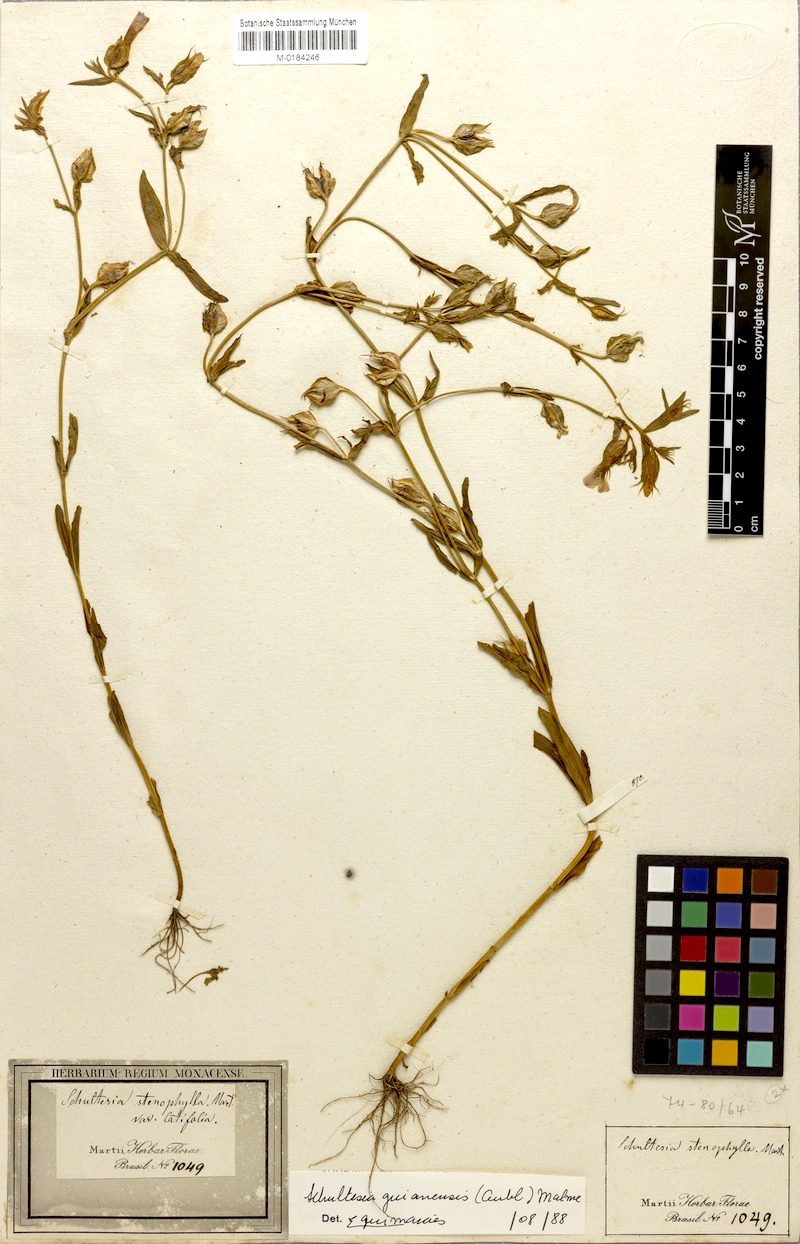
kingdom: Plantae
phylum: Tracheophyta
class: Magnoliopsida
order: Gentianales
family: Gentianaceae
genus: Schultesia
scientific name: Schultesia brachyptera
